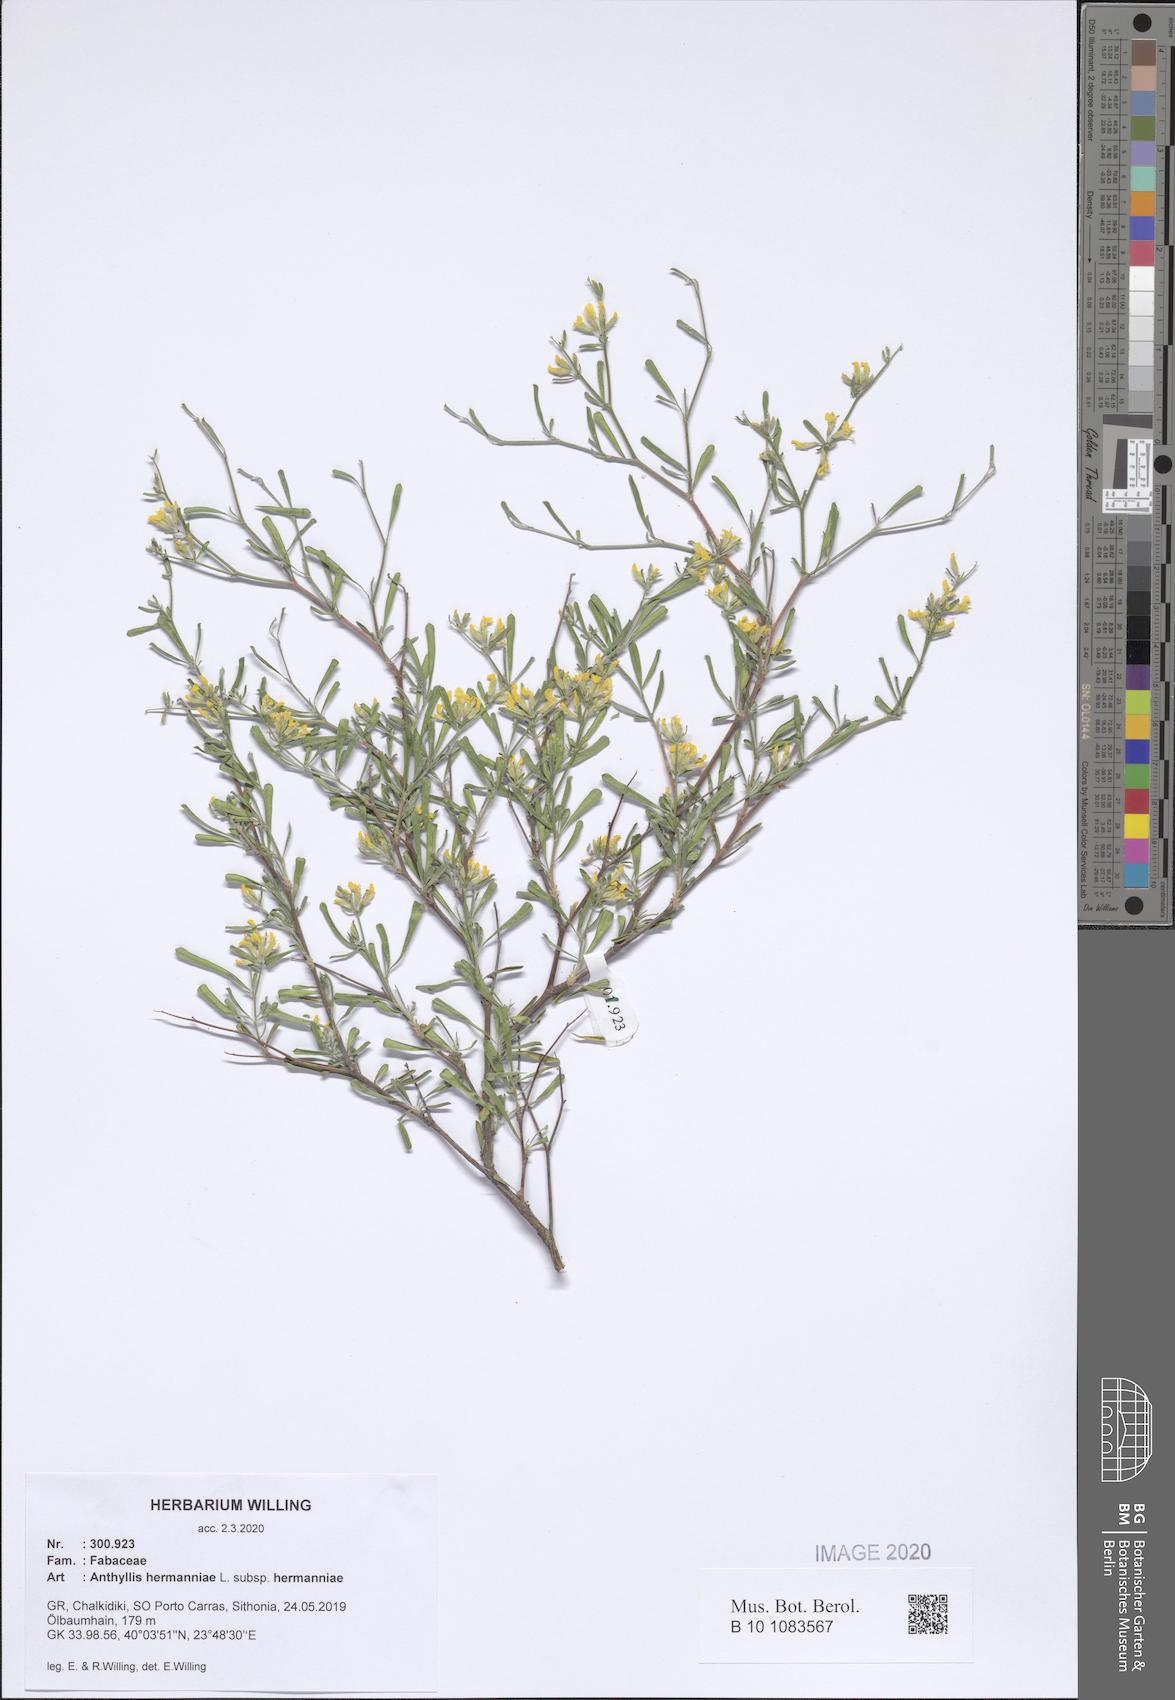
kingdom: Plantae
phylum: Tracheophyta
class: Magnoliopsida
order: Fabales
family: Fabaceae
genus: Anthyllis
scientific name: Anthyllis hermanniae
